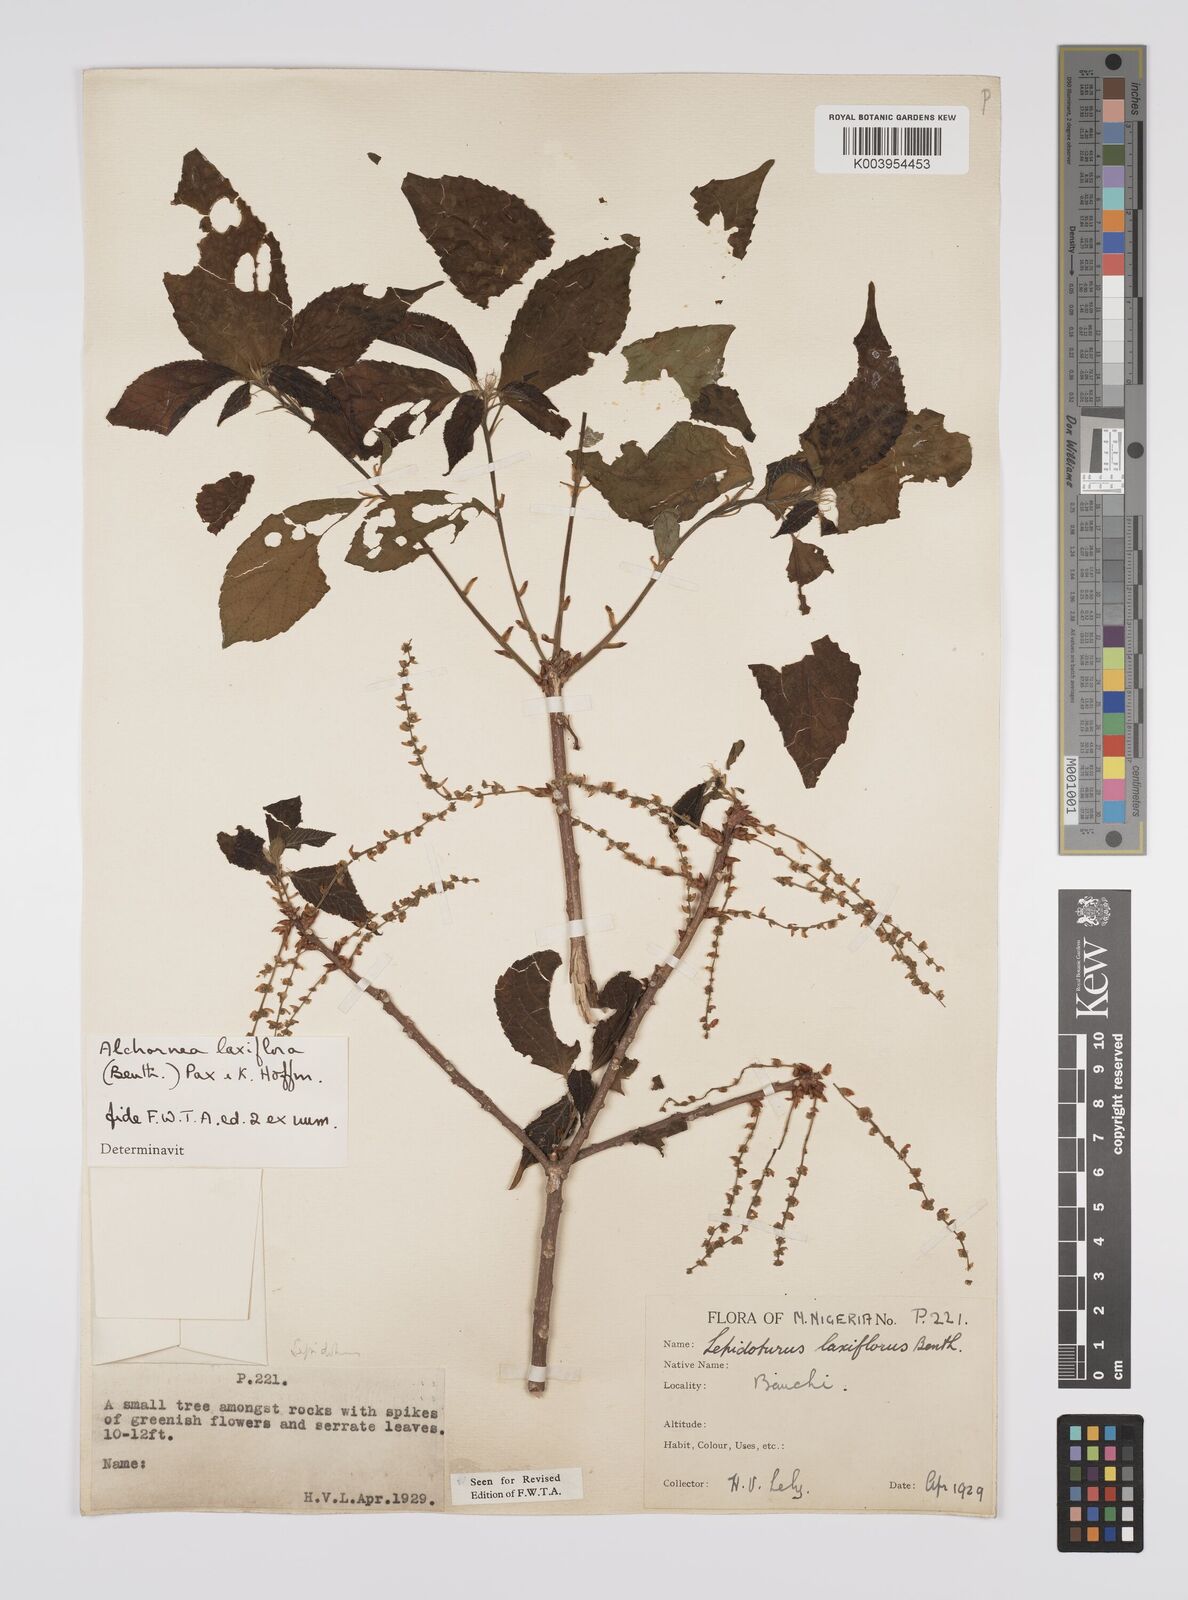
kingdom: Plantae
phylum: Tracheophyta
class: Magnoliopsida
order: Malpighiales
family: Euphorbiaceae
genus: Alchornea
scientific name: Alchornea laxiflora
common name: Lowveld bead-string
